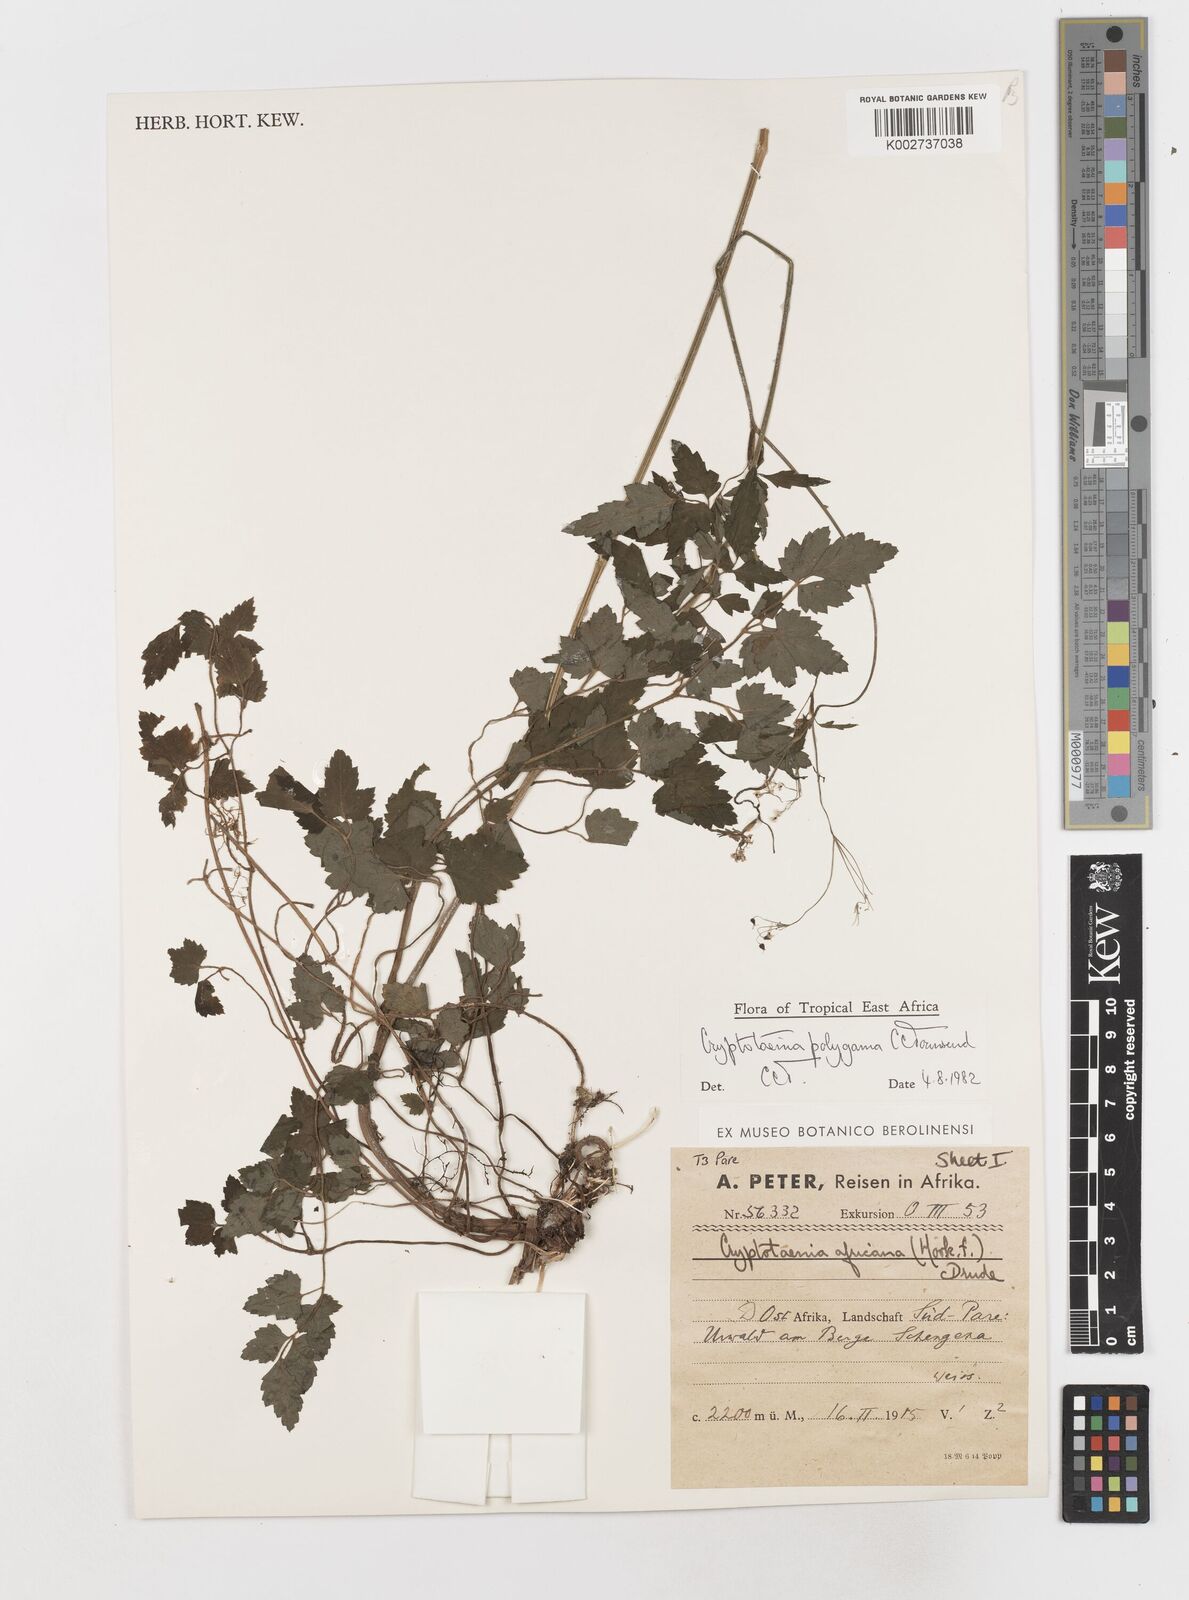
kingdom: Plantae
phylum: Tracheophyta
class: Magnoliopsida
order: Apiales
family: Apiaceae
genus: Cryptotaenia
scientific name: Cryptotaenia polygama
